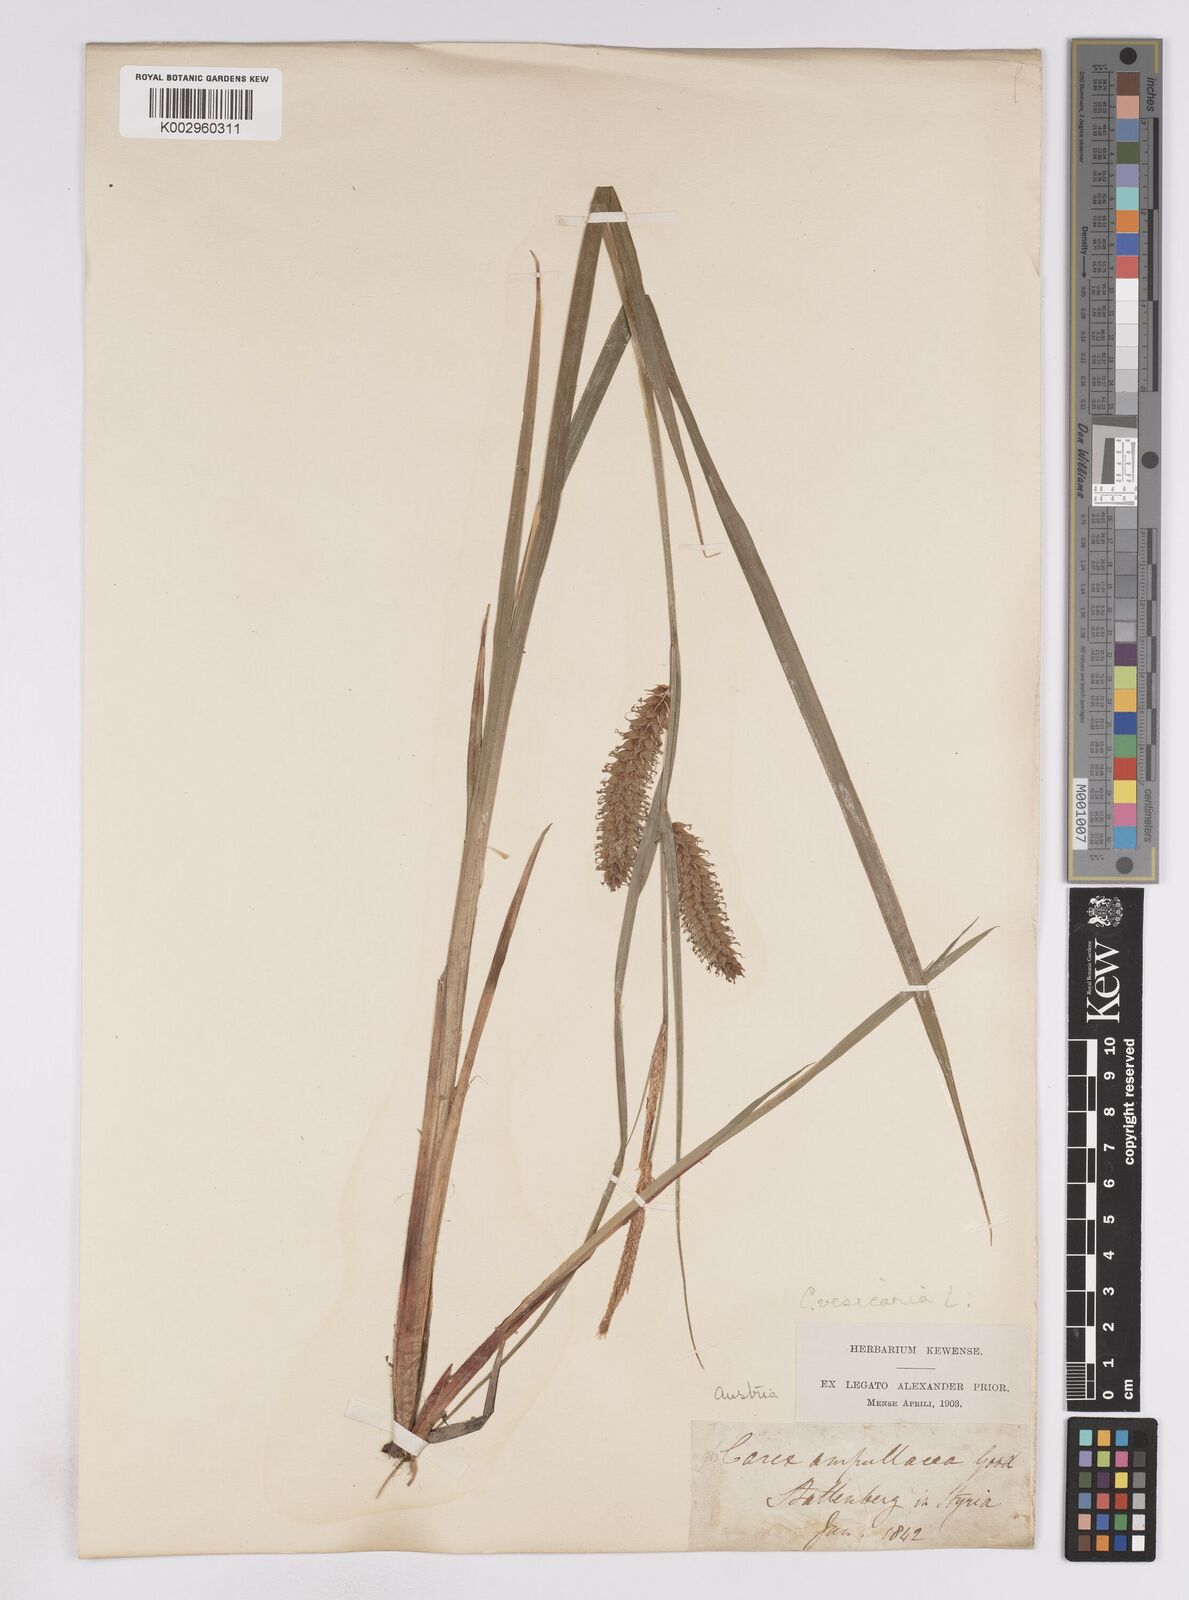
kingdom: Plantae
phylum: Tracheophyta
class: Liliopsida
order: Poales
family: Cyperaceae
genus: Carex
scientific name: Carex vesicaria
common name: Bladder-sedge
